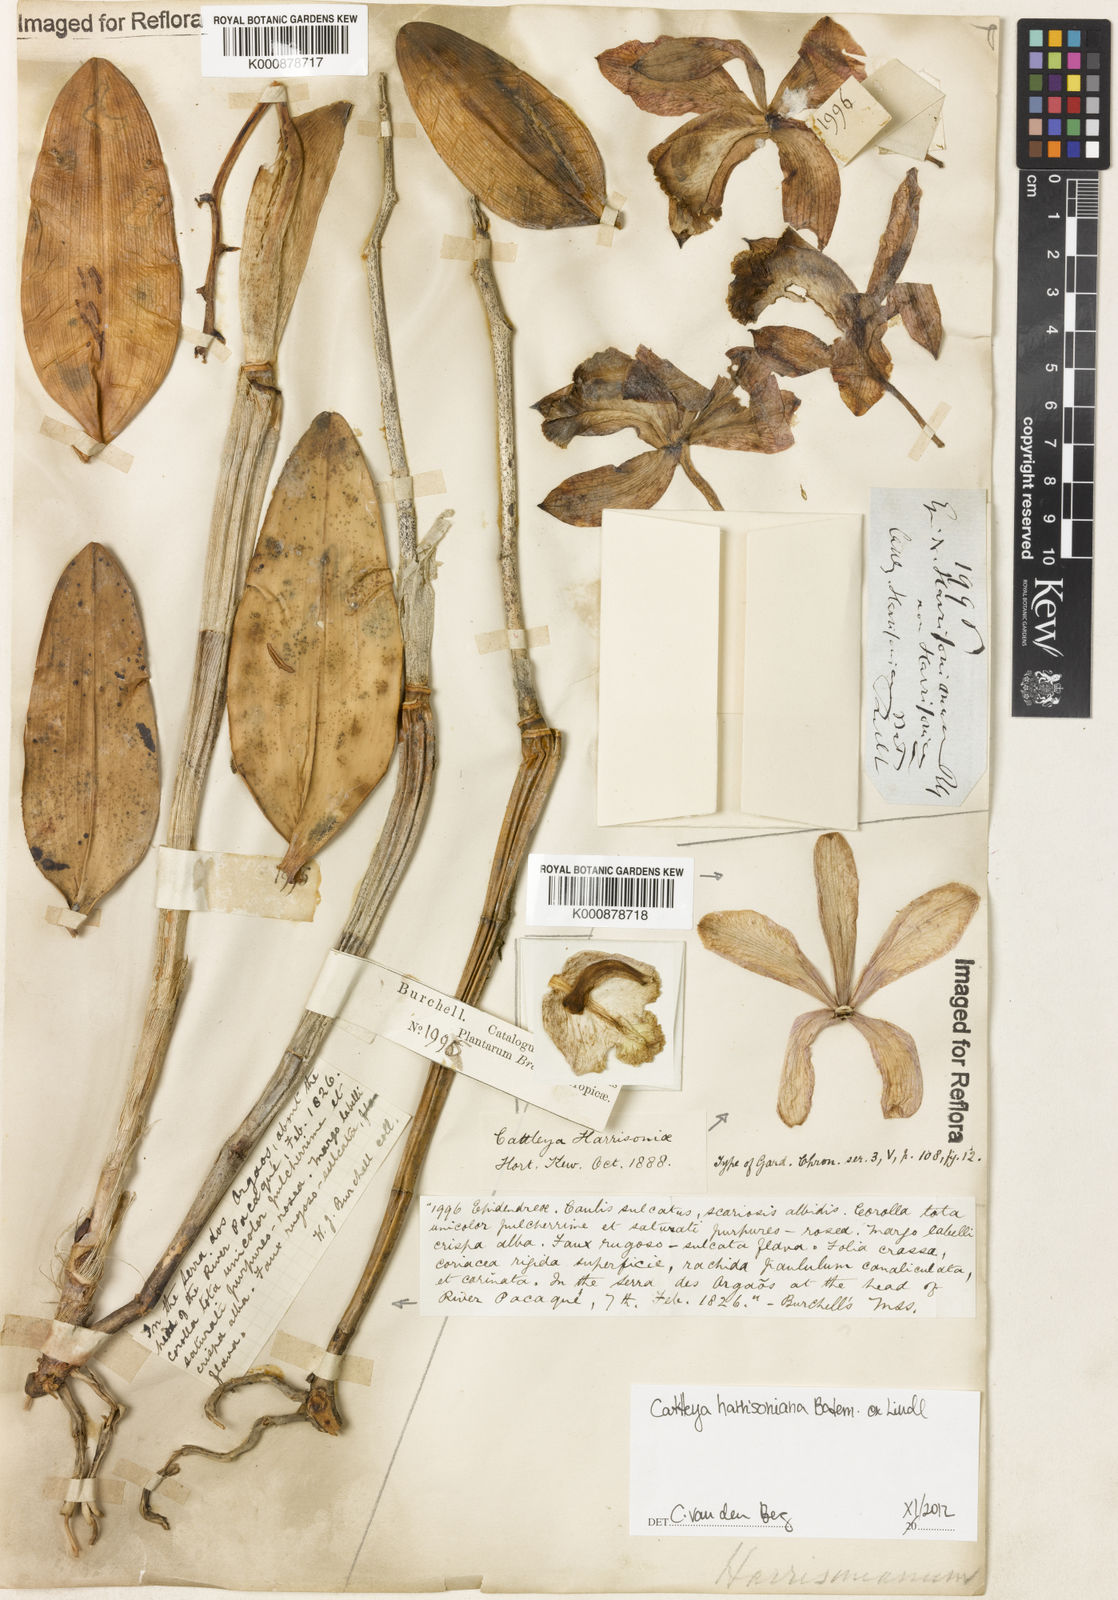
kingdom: Plantae
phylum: Tracheophyta
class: Liliopsida
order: Asparagales
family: Orchidaceae
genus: Cattleya
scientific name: Cattleya harrisoniana
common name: Harrison's cattleya
